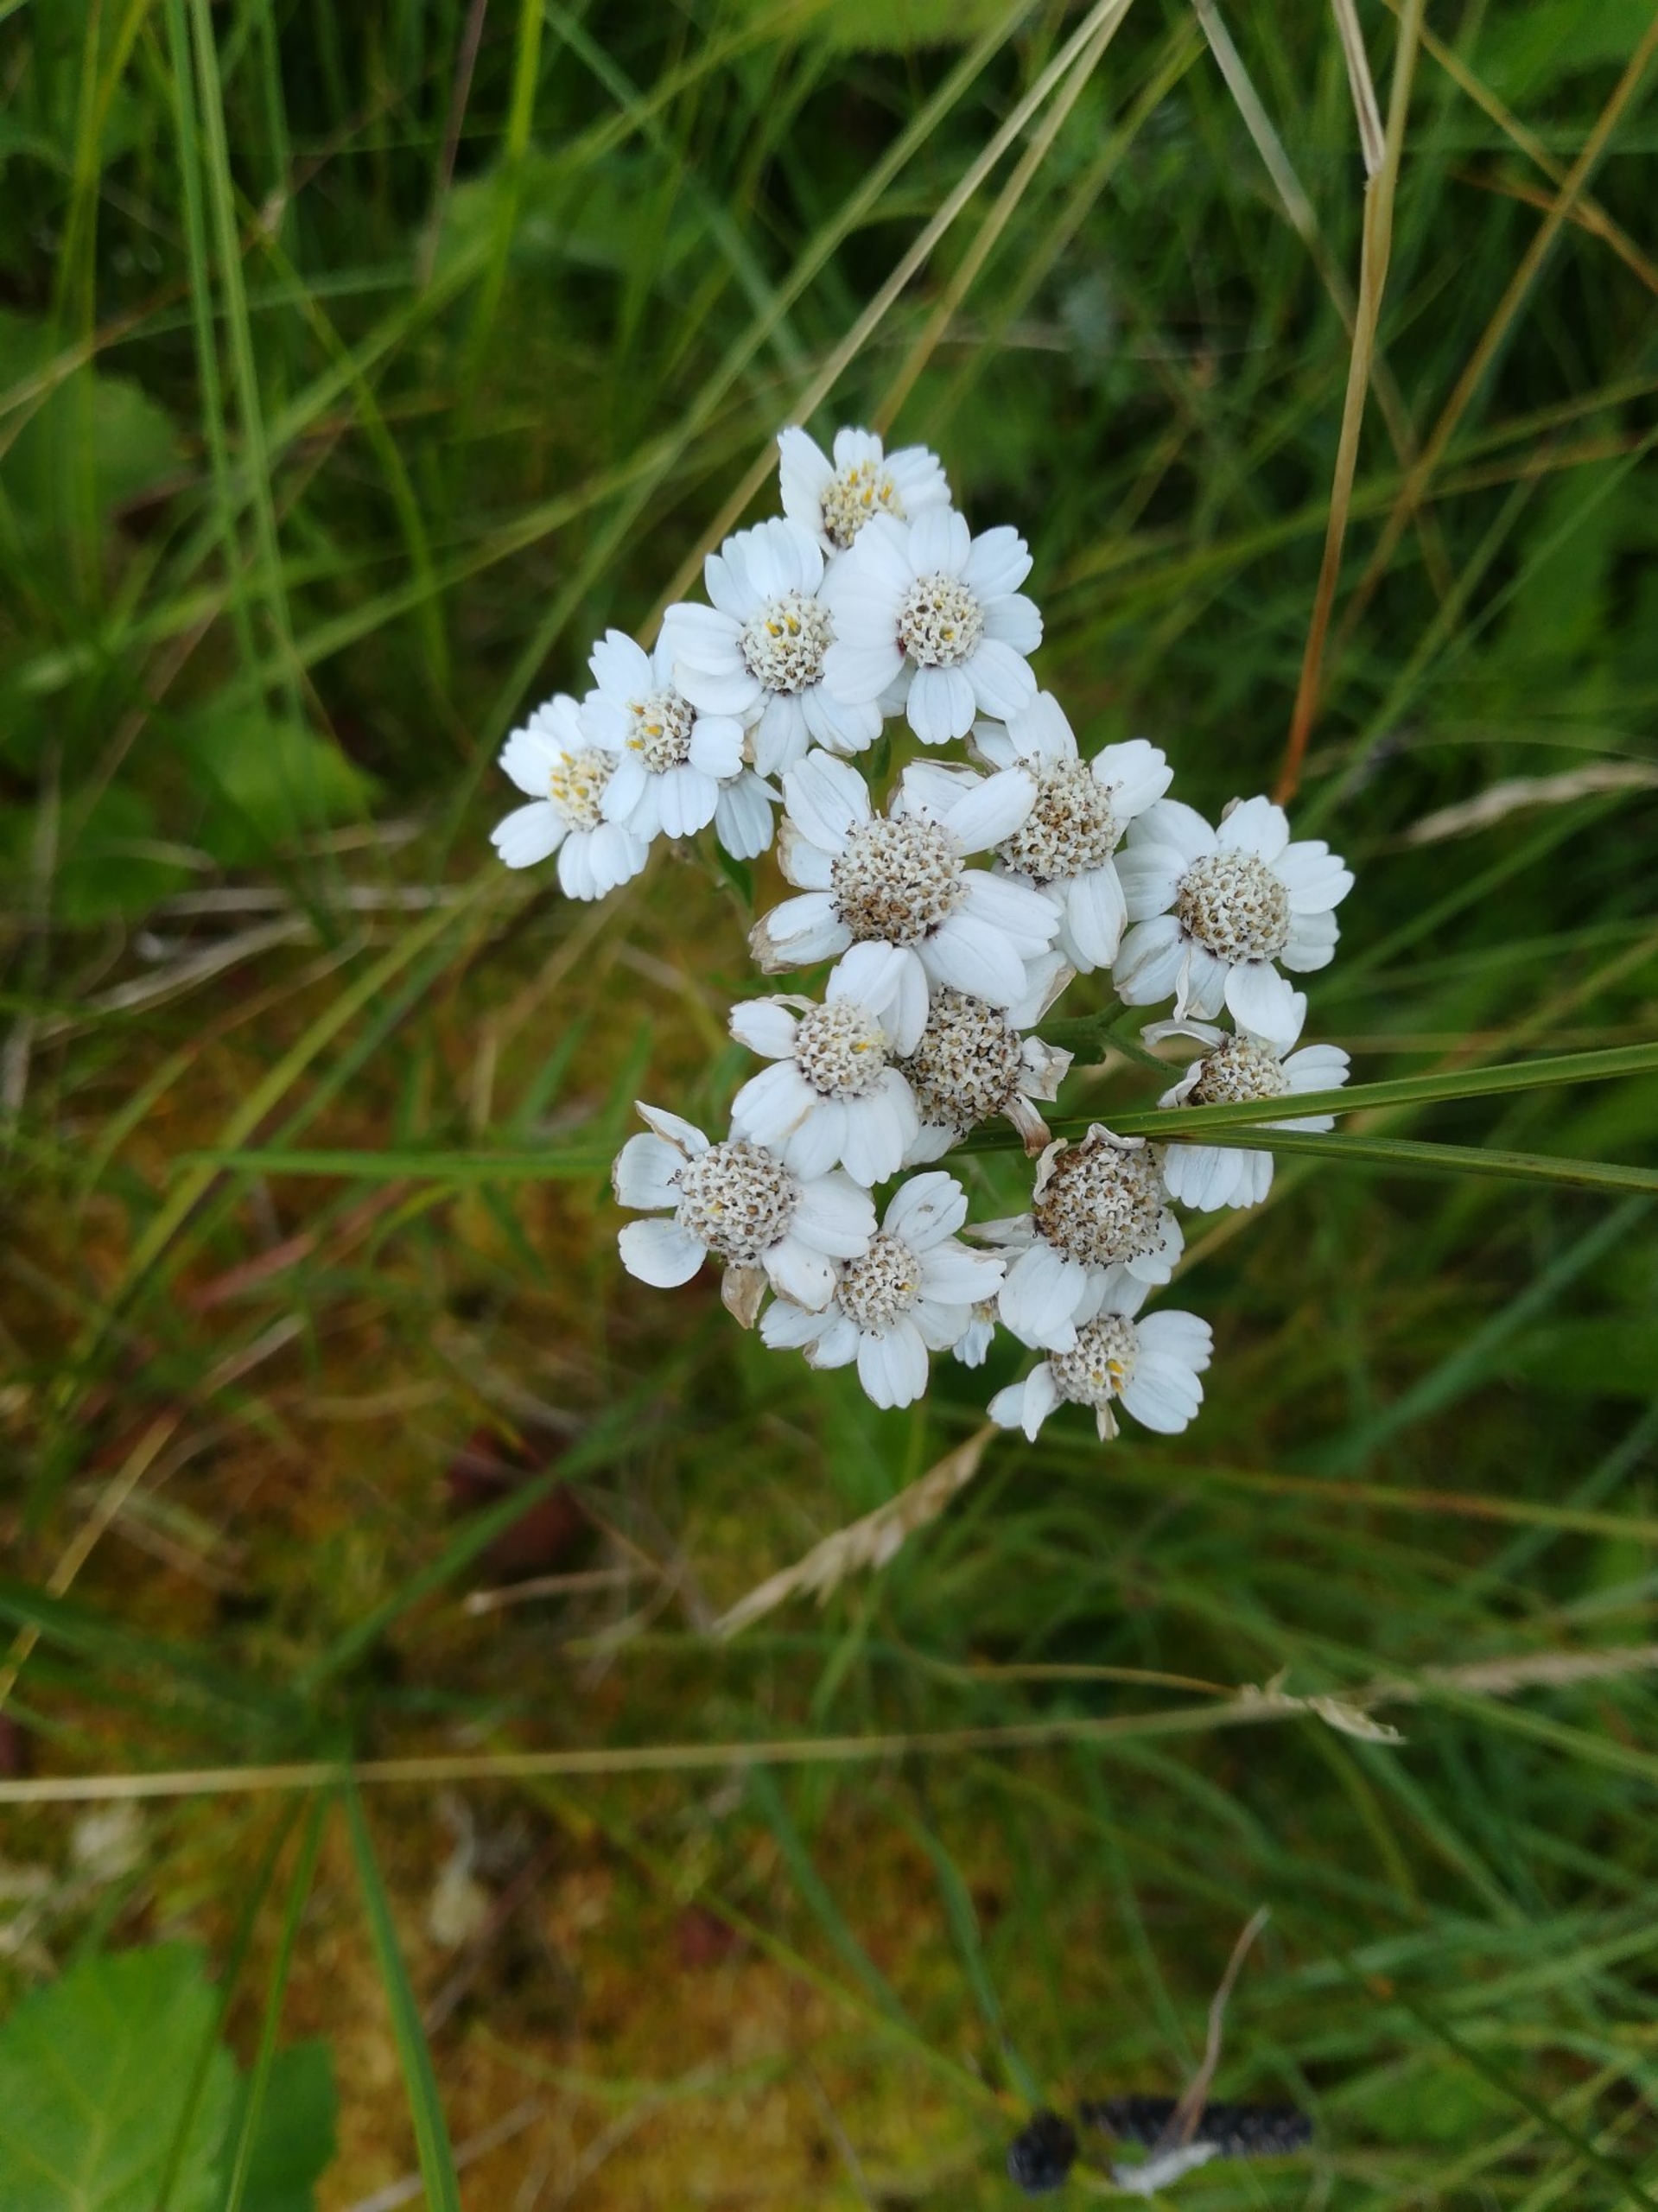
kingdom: Plantae
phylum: Tracheophyta
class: Magnoliopsida
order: Asterales
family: Asteraceae
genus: Achillea
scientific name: Achillea ptarmica
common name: Nyse-røllike
